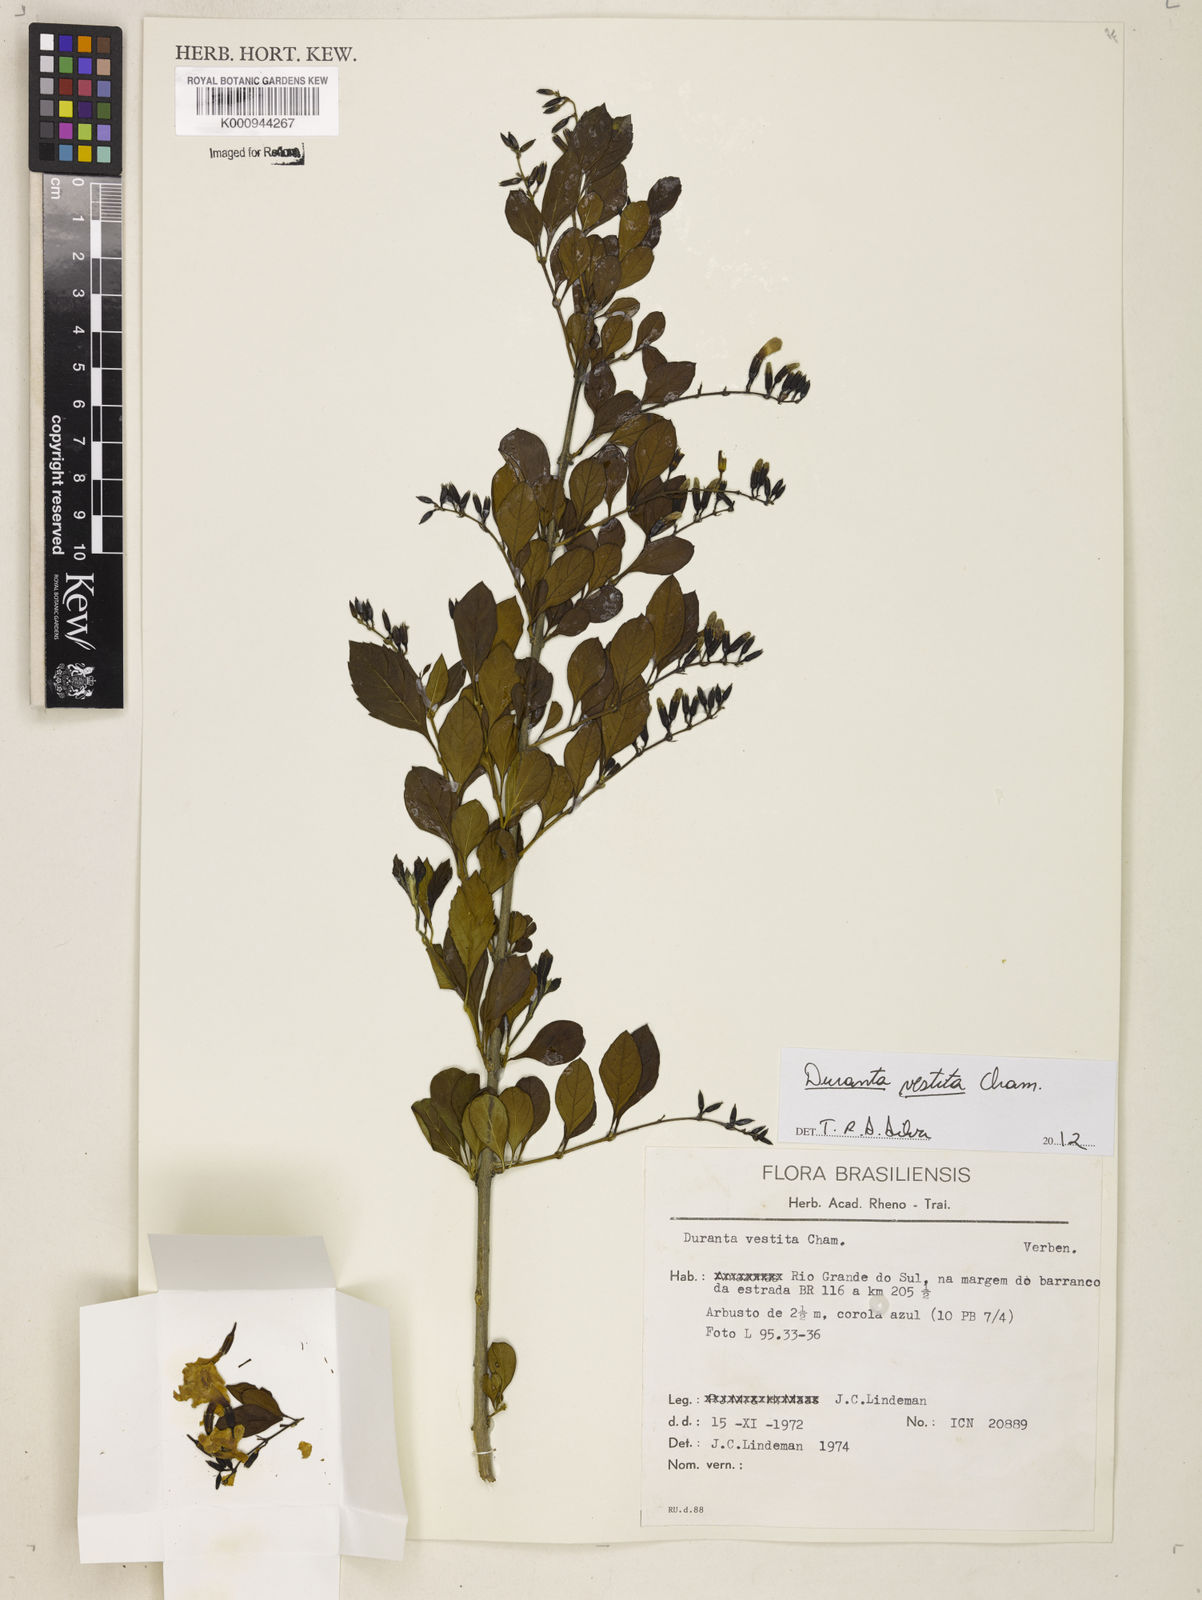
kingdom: Plantae
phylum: Tracheophyta
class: Magnoliopsida
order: Lamiales
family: Verbenaceae
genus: Citharexylum
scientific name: Citharexylum
